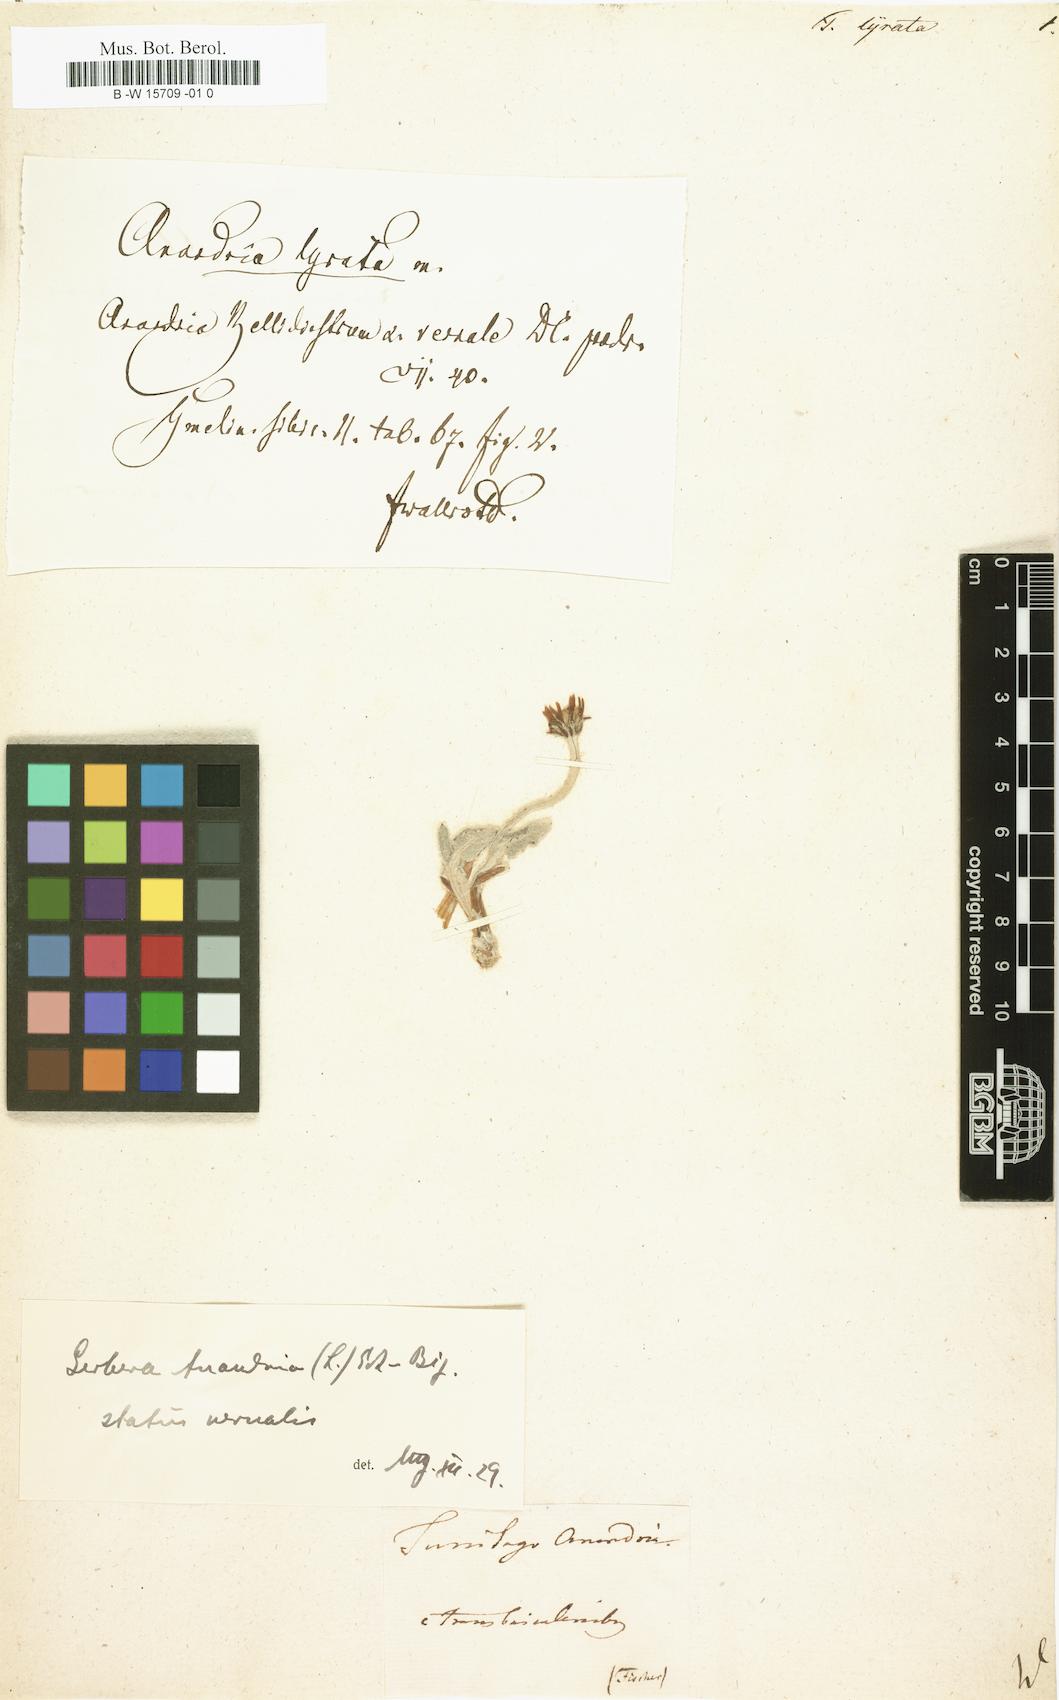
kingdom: Plantae
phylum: Tracheophyta
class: Magnoliopsida
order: Asterales
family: Asteraceae
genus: Leibnitzia
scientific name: Leibnitzia anandria
